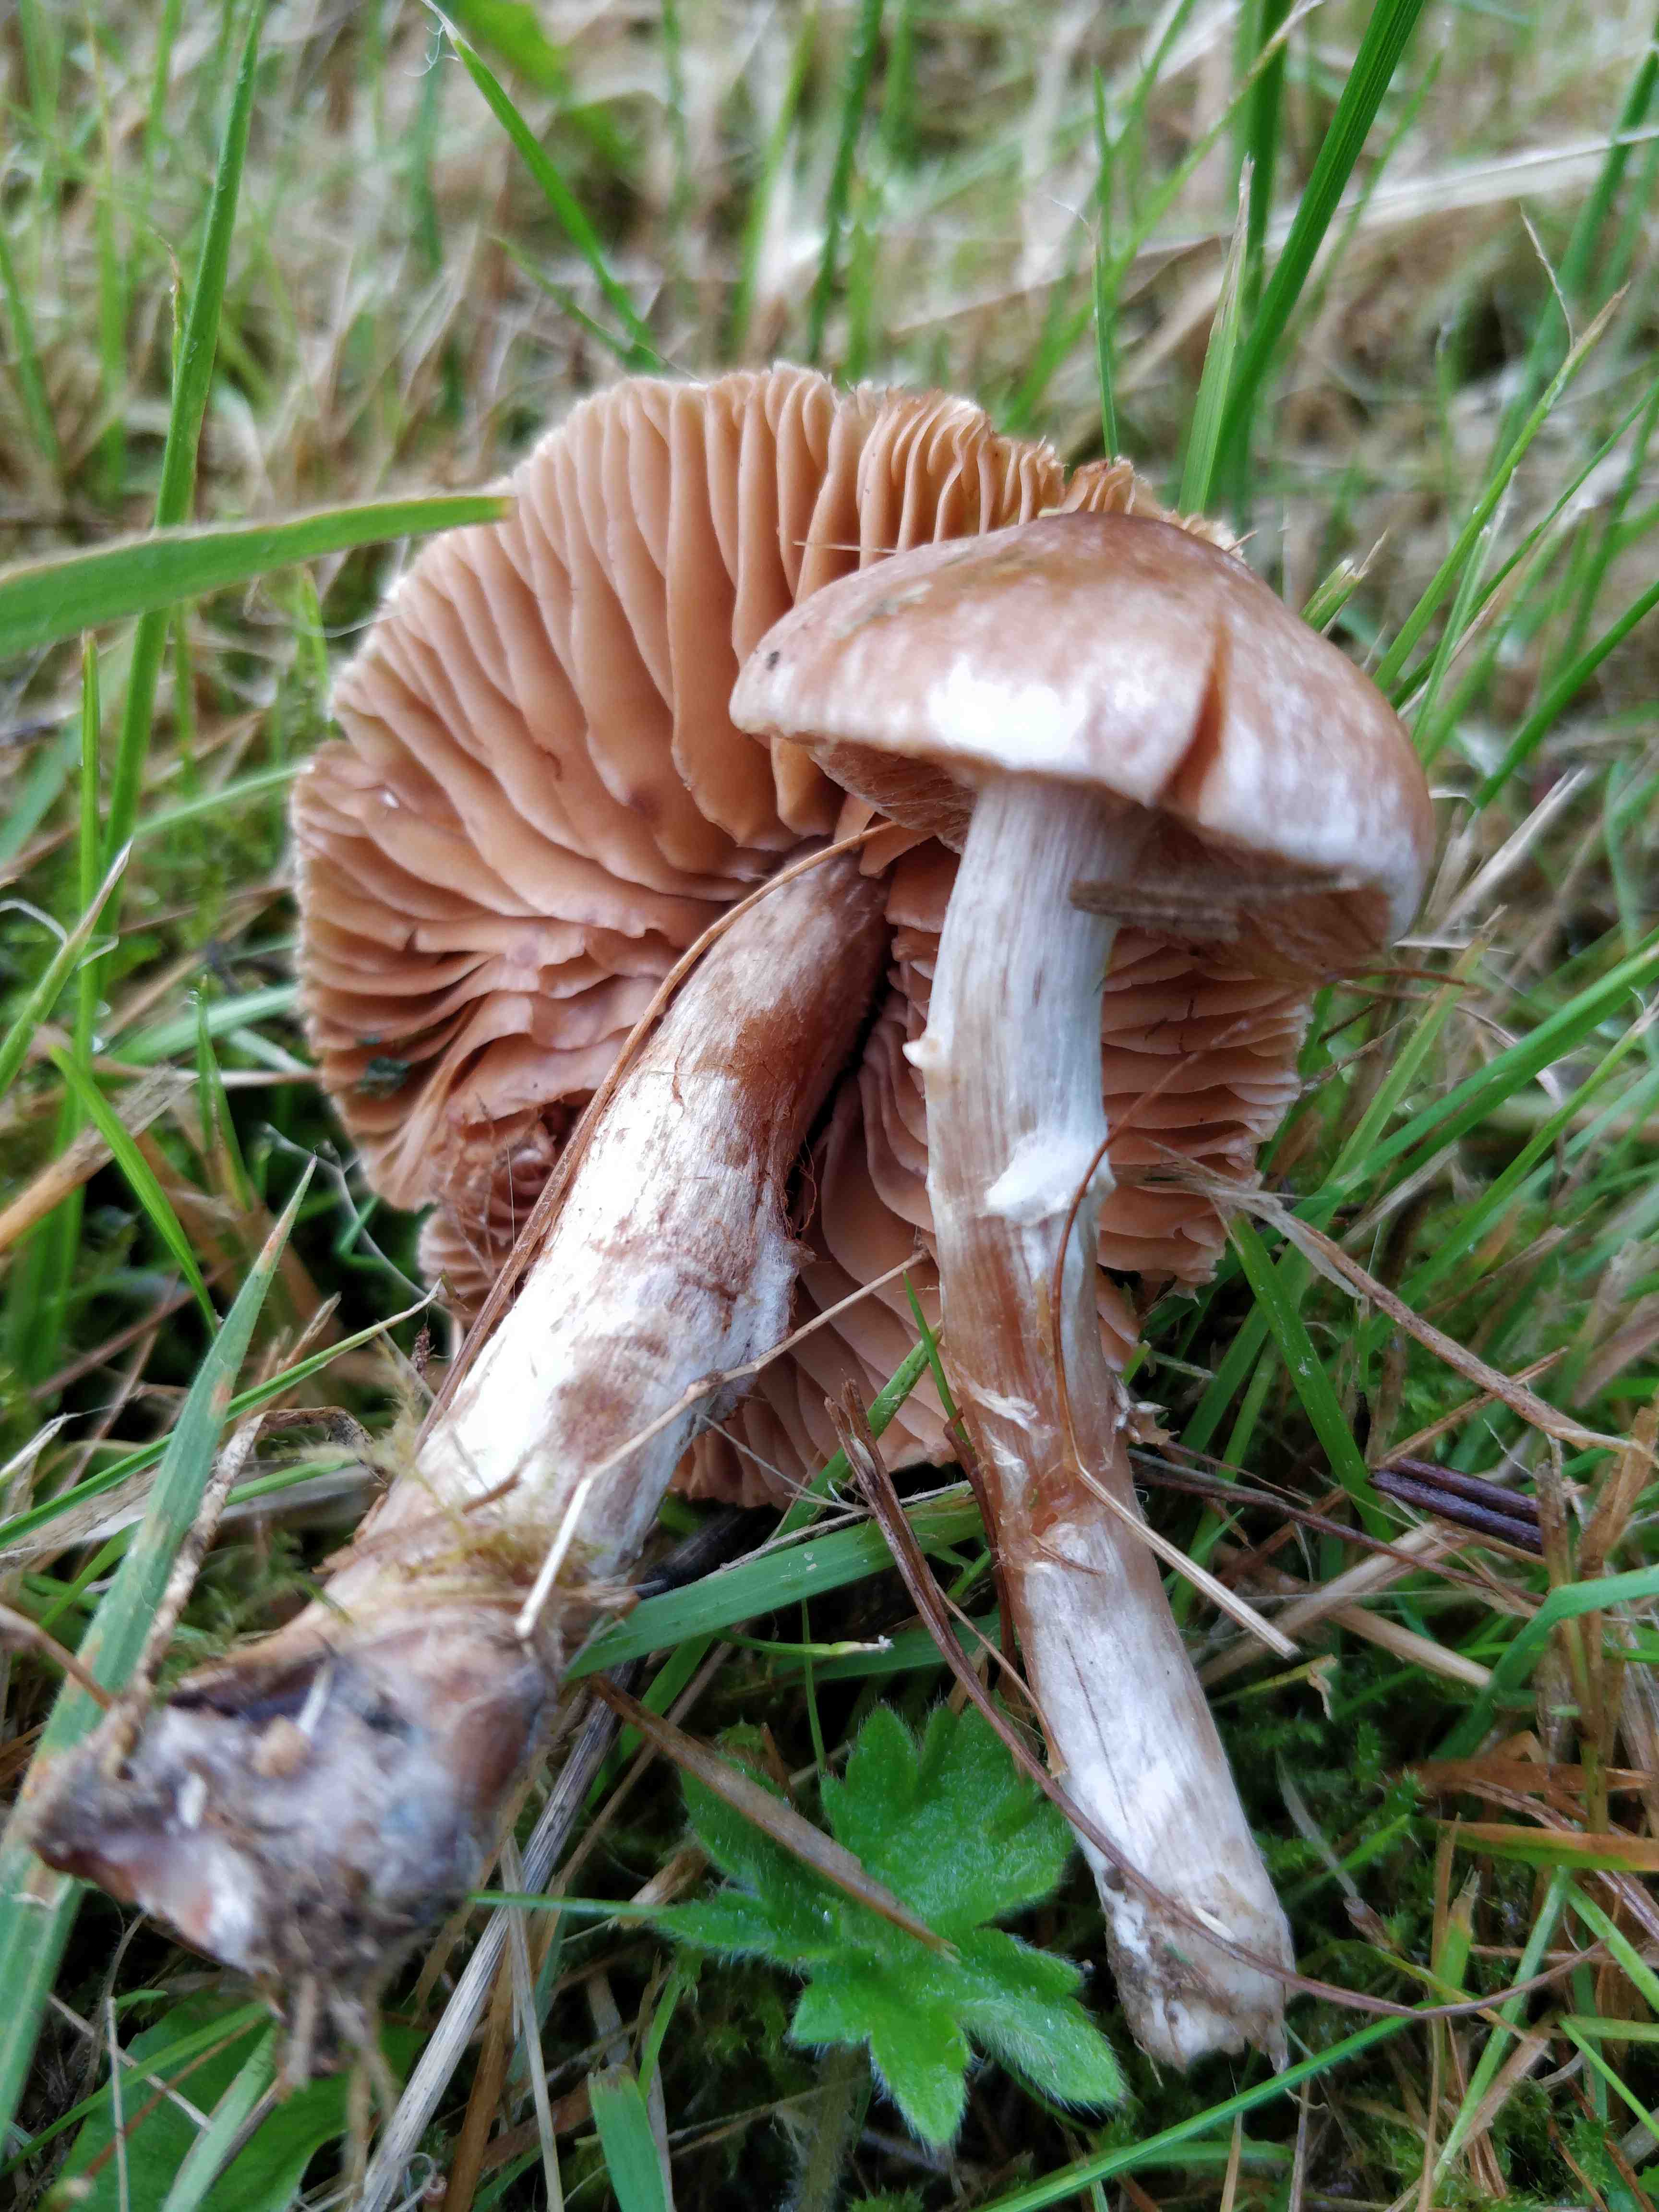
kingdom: Fungi
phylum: Basidiomycota
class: Agaricomycetes
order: Agaricales
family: Cortinariaceae
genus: Cortinarius
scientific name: Cortinarius
